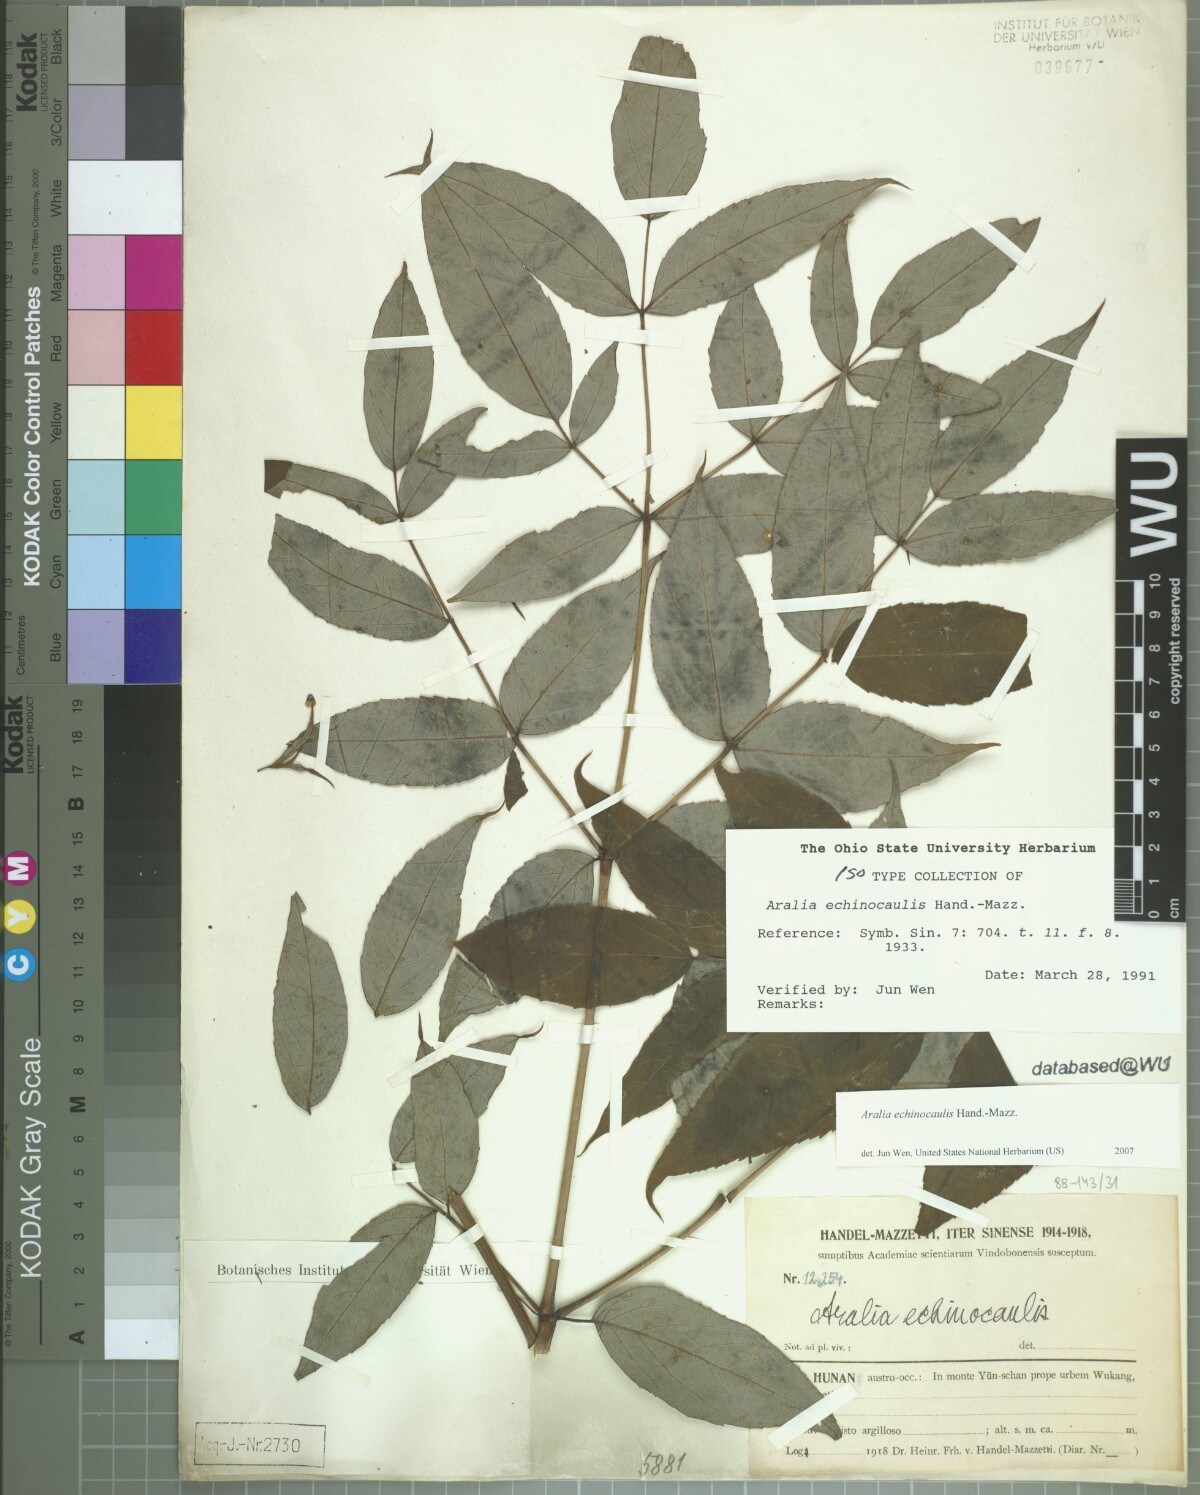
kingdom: Plantae
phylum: Tracheophyta
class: Magnoliopsida
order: Apiales
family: Araliaceae
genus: Aralia
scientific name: Aralia echinocaulis
